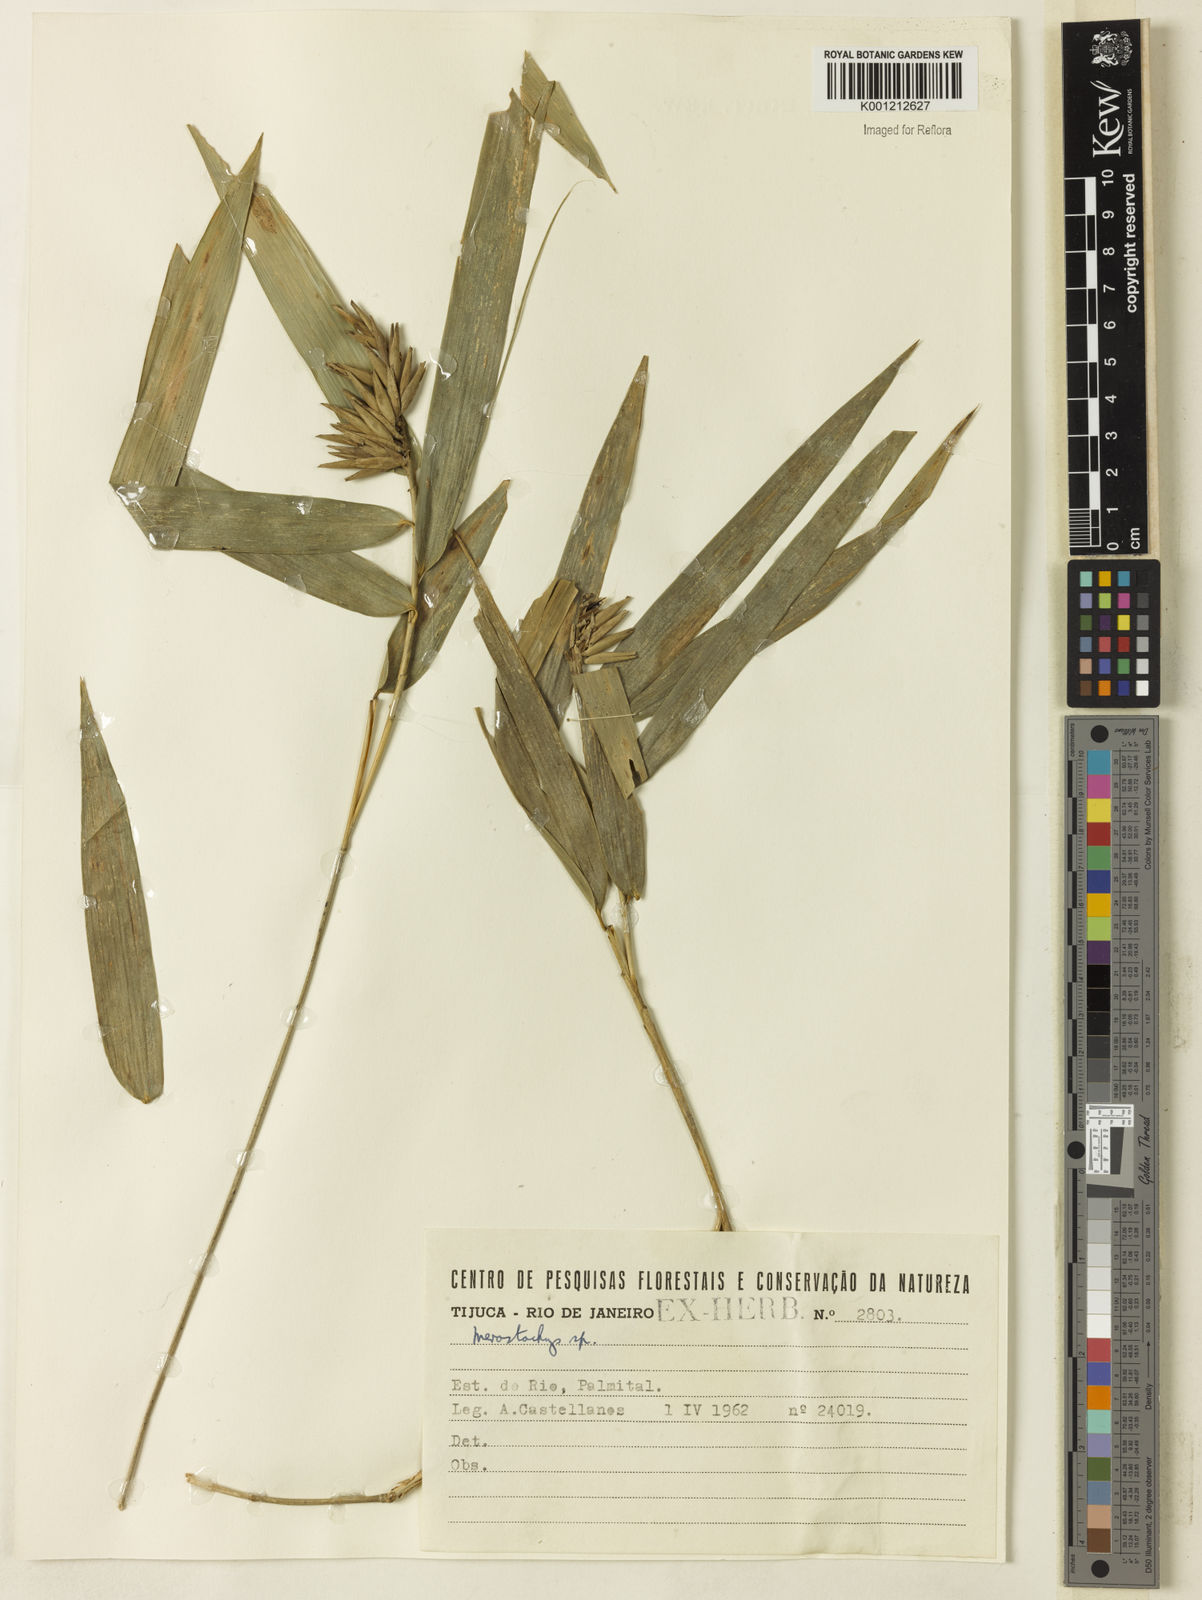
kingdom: Plantae
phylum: Tracheophyta
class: Liliopsida
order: Poales
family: Poaceae
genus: Merostachys
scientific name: Merostachys
